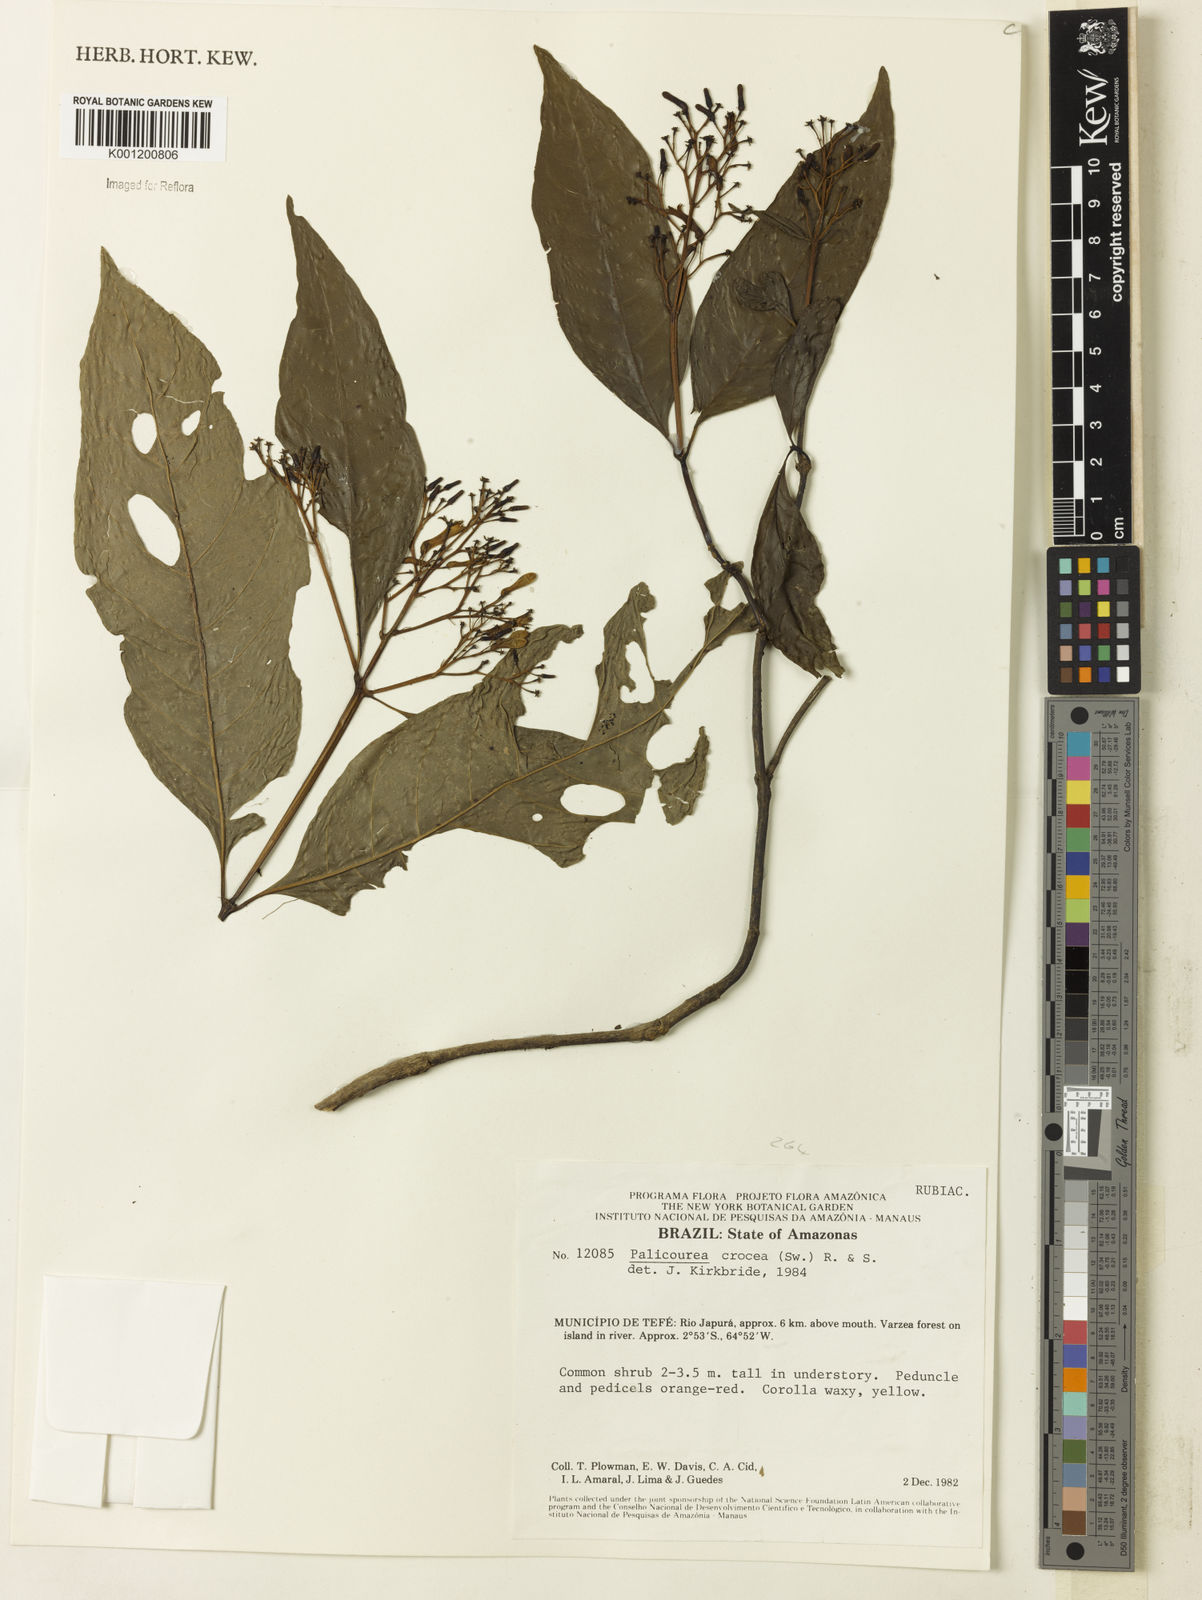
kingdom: Plantae
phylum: Tracheophyta
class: Magnoliopsida
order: Gentianales
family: Rubiaceae
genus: Palicourea
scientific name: Palicourea crocea
